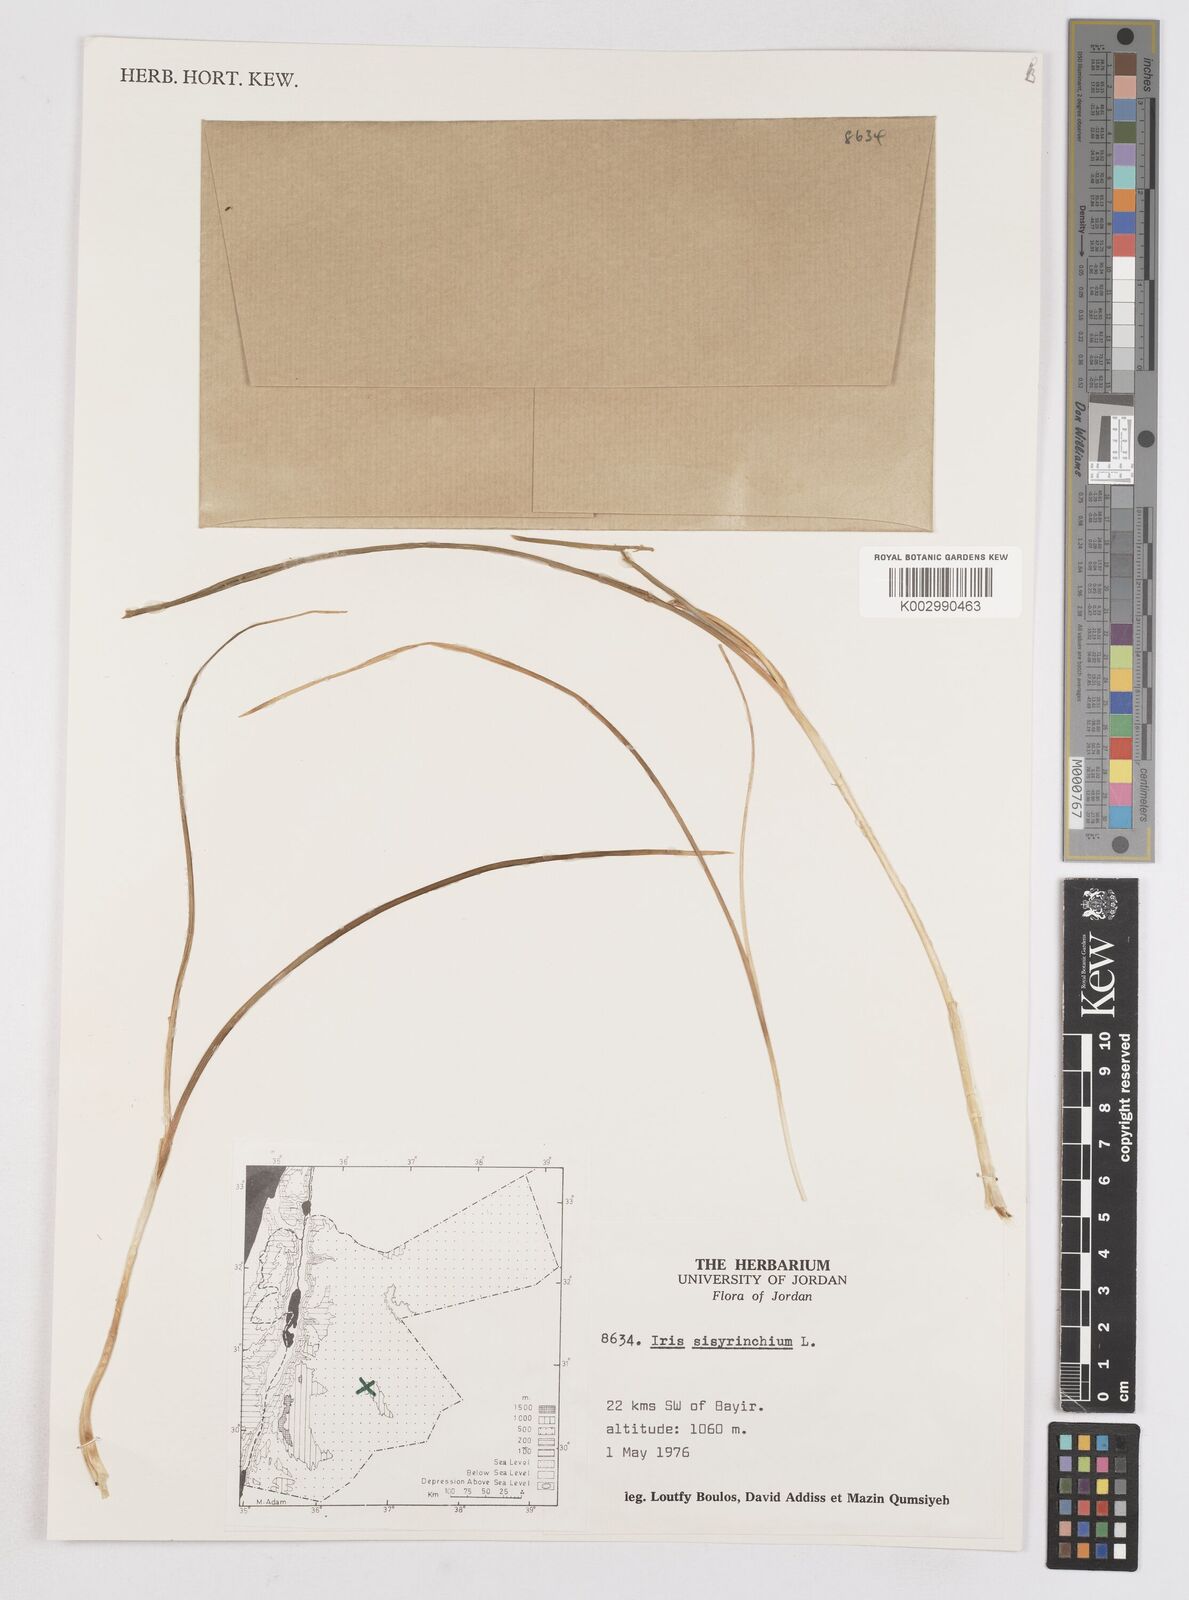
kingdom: Plantae
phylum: Tracheophyta
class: Liliopsida
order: Asparagales
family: Iridaceae
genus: Moraea
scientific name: Moraea sisyrinchium
